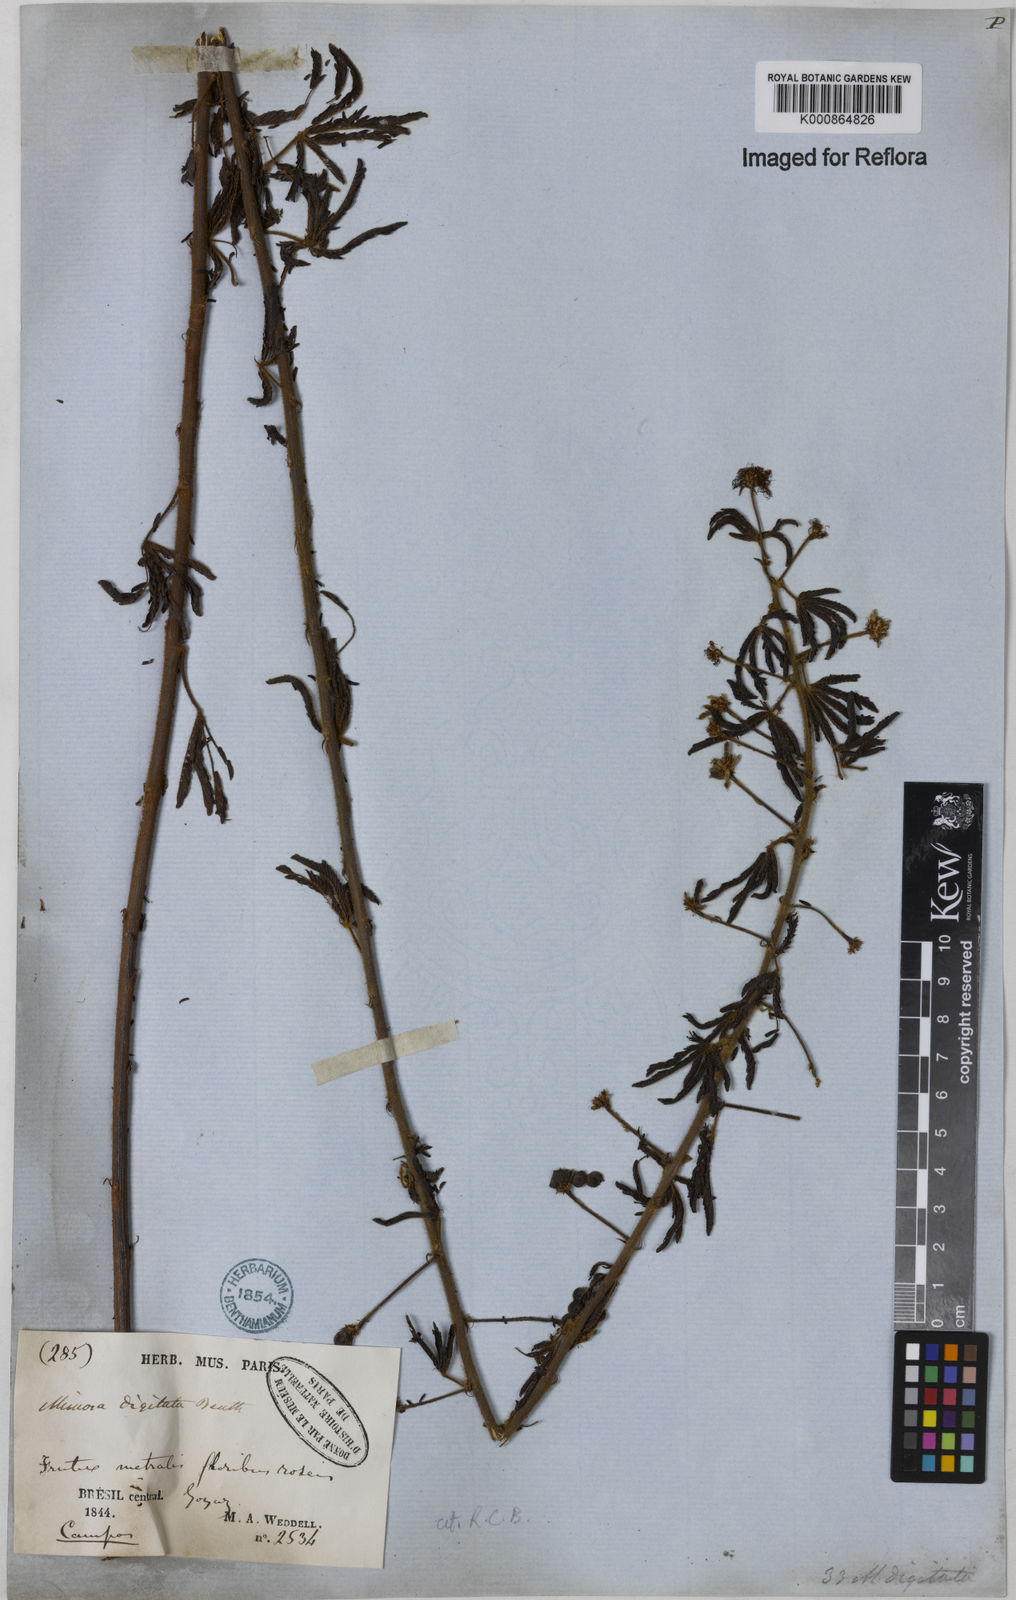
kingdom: Plantae
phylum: Tracheophyta
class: Magnoliopsida
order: Fabales
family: Fabaceae
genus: Mimosa
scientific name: Mimosa digitata
